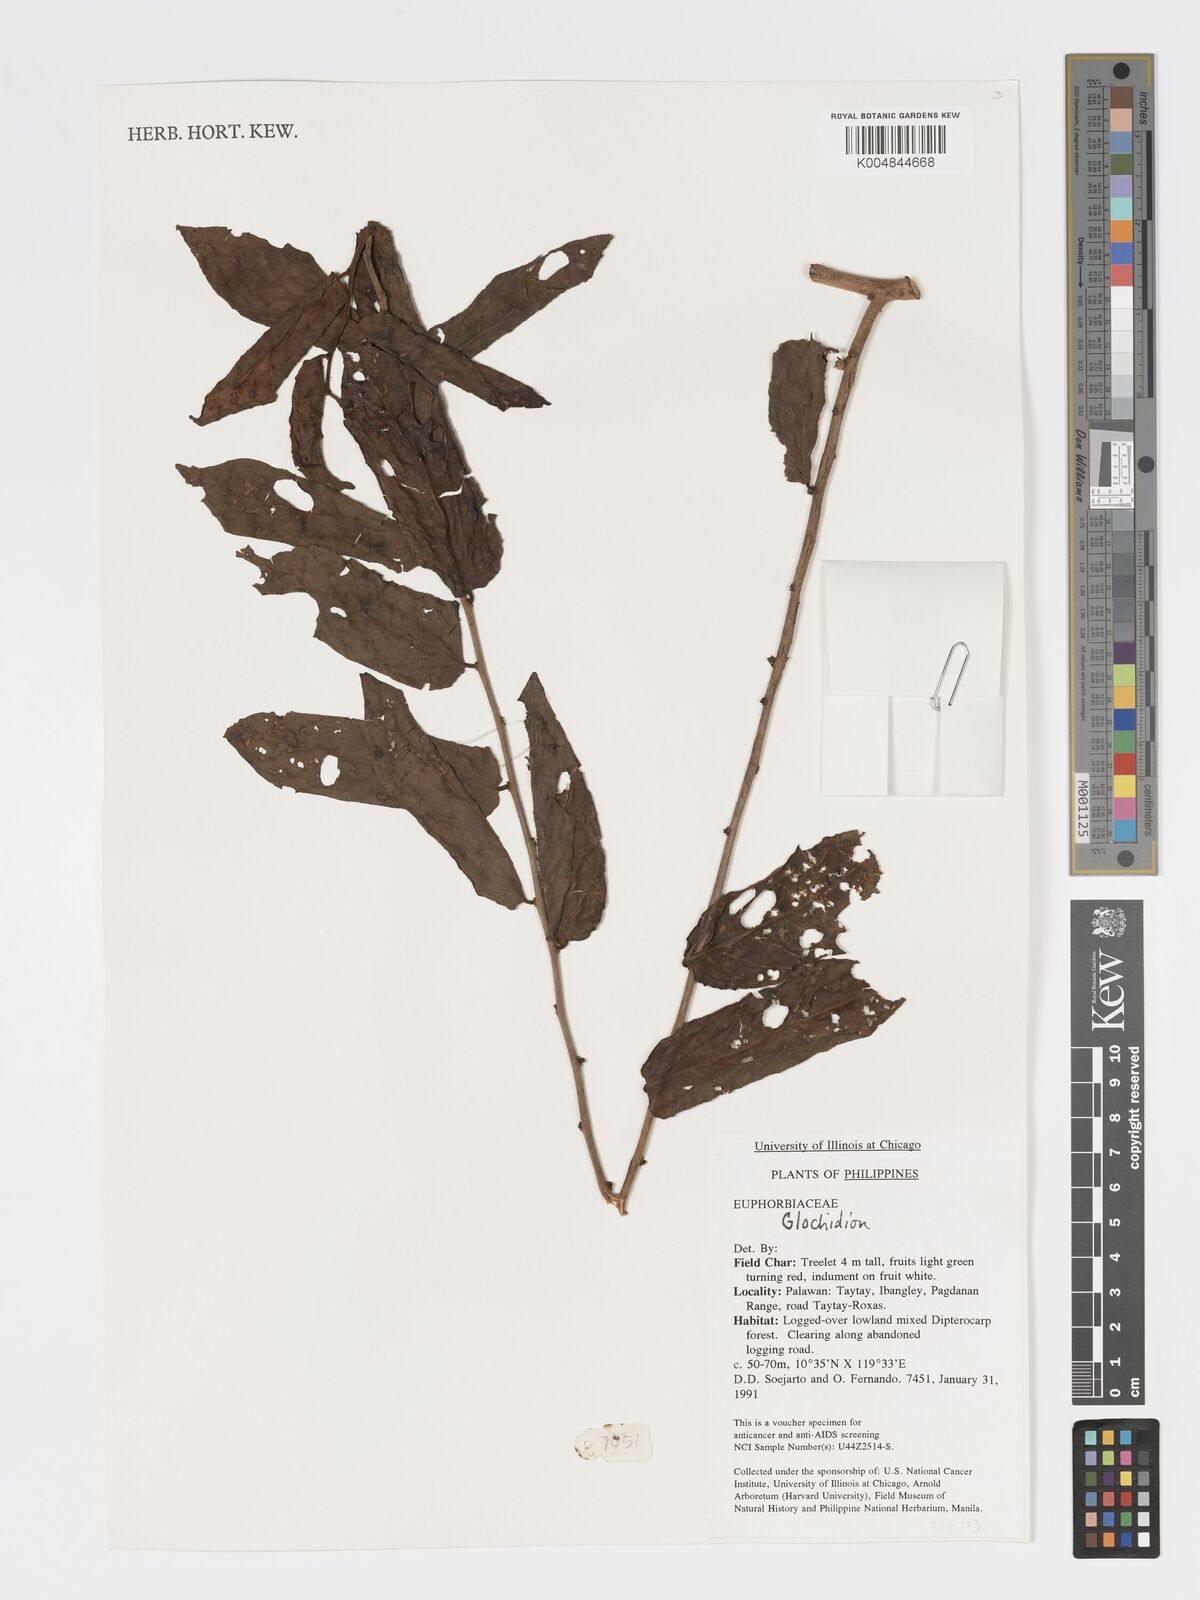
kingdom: Plantae
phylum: Tracheophyta
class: Magnoliopsida
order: Malpighiales
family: Phyllanthaceae
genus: Glochidion
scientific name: Glochidion
